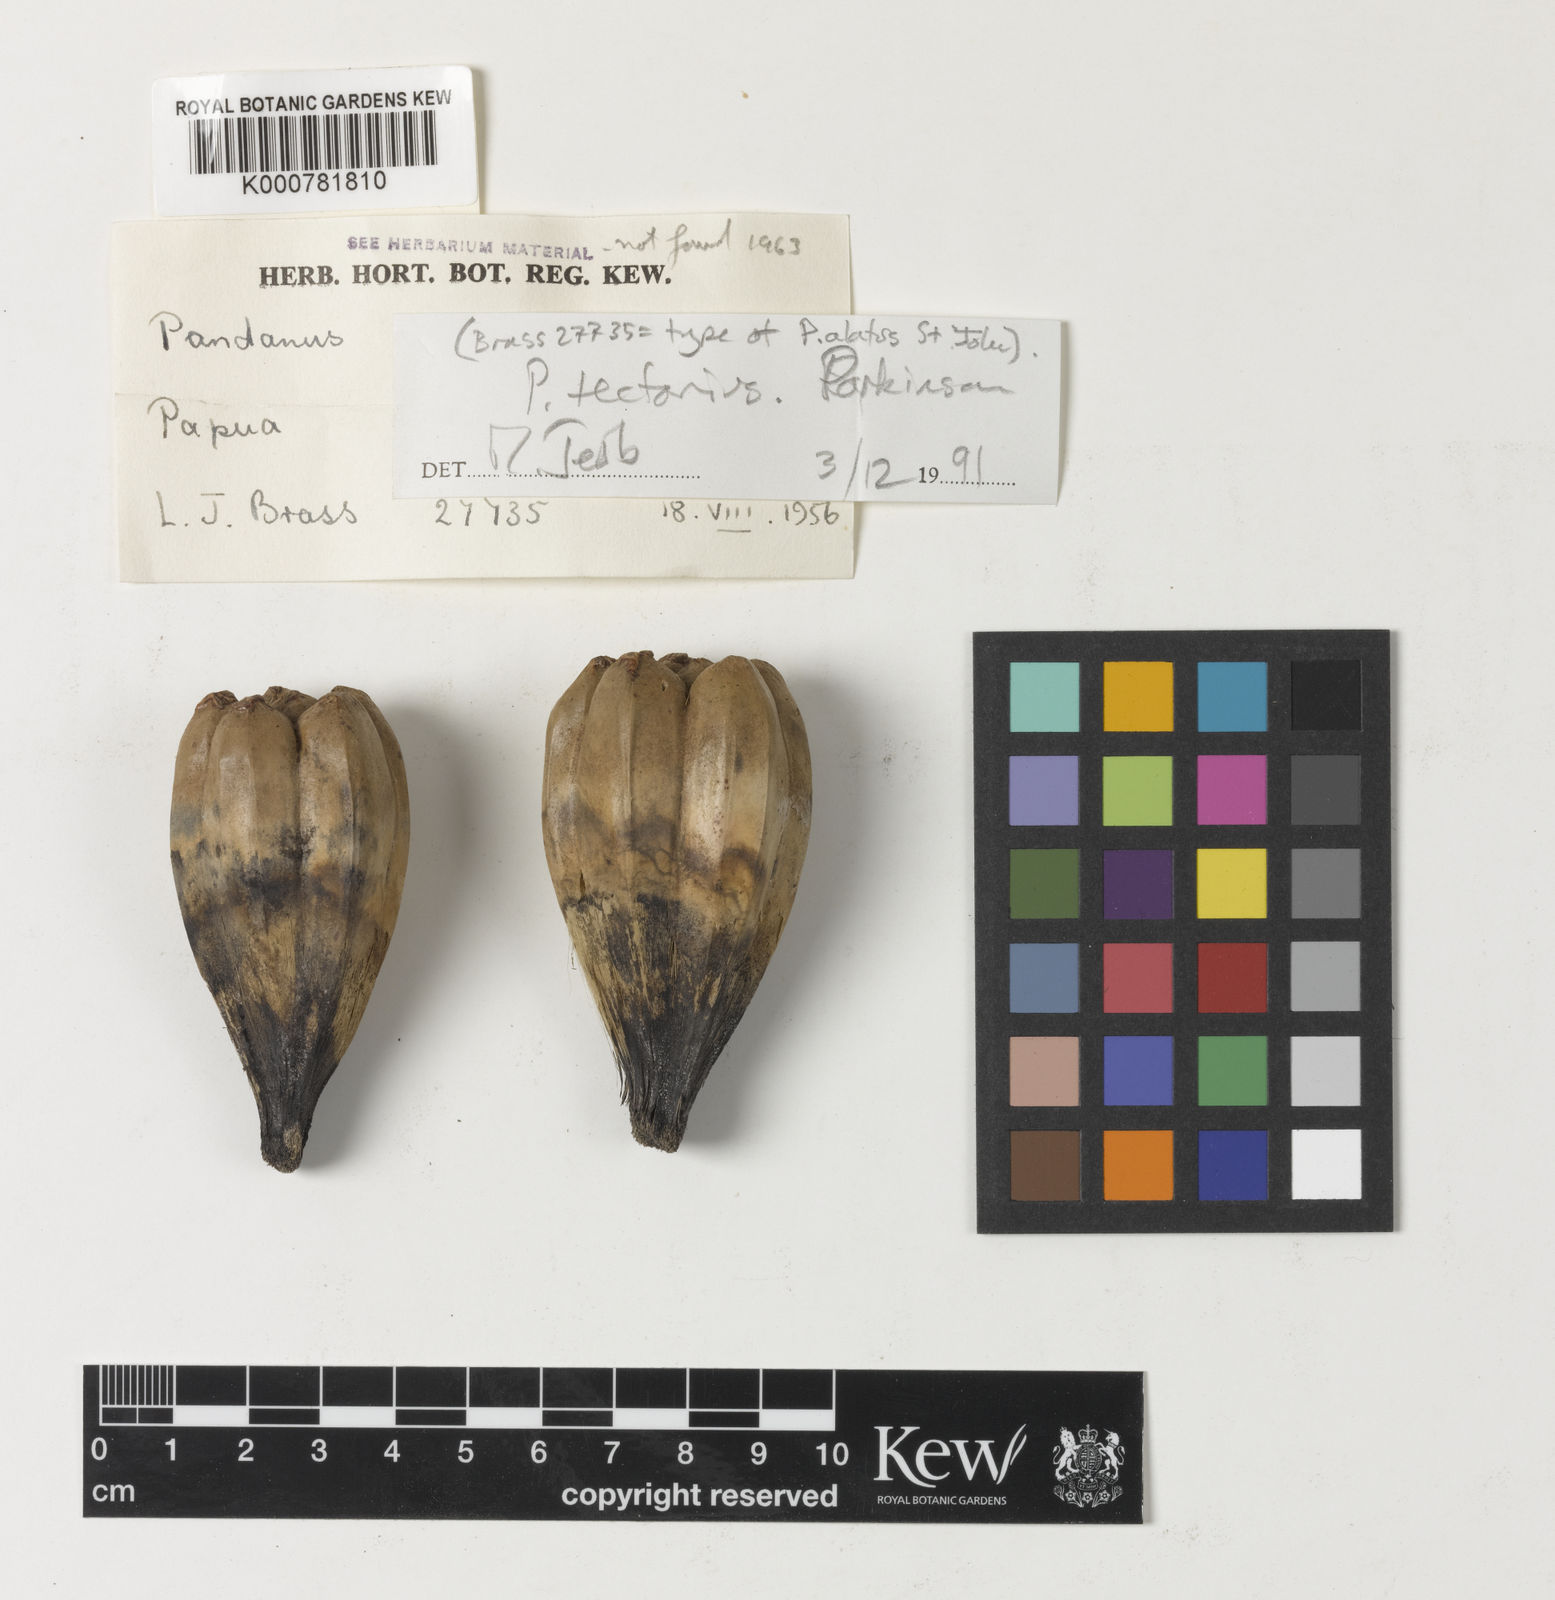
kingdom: Plantae
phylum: Tracheophyta
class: Liliopsida
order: Pandanales
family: Pandanaceae
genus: Pandanus
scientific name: Pandanus
